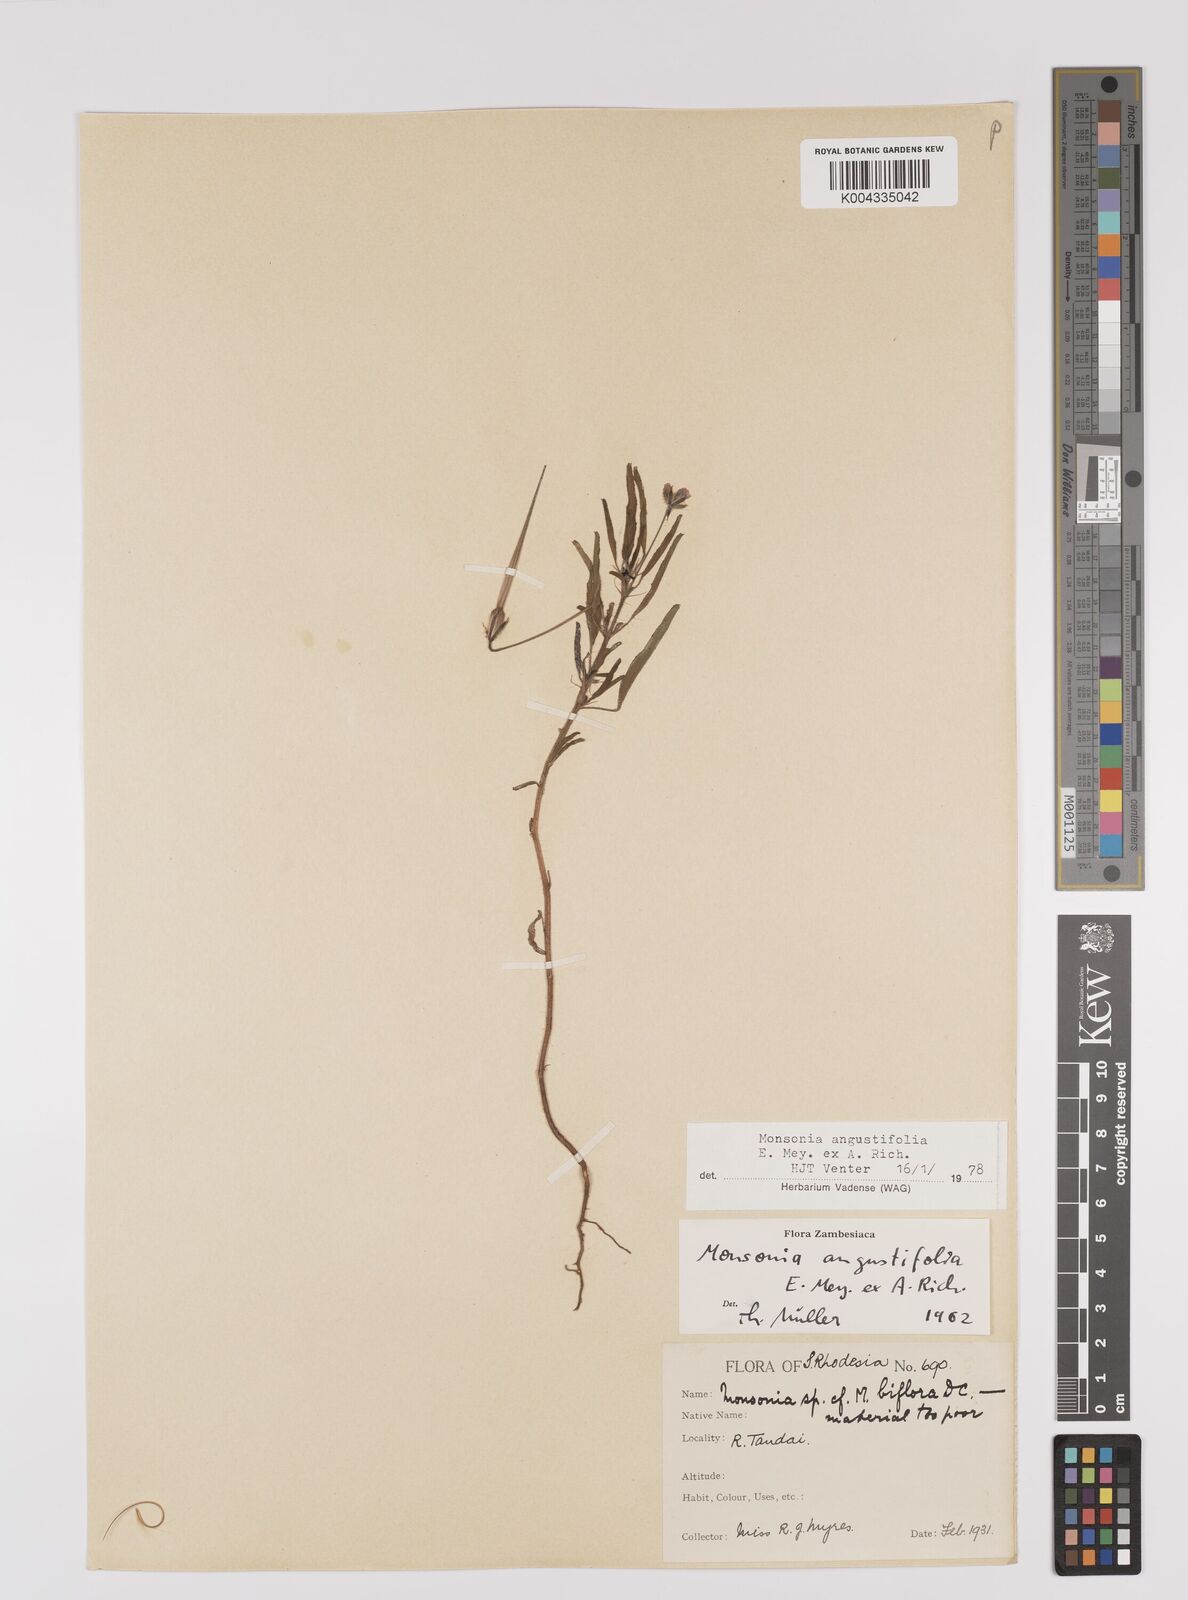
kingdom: Plantae
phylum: Tracheophyta
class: Magnoliopsida
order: Geraniales
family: Geraniaceae
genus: Monsonia
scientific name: Monsonia angustifolia
